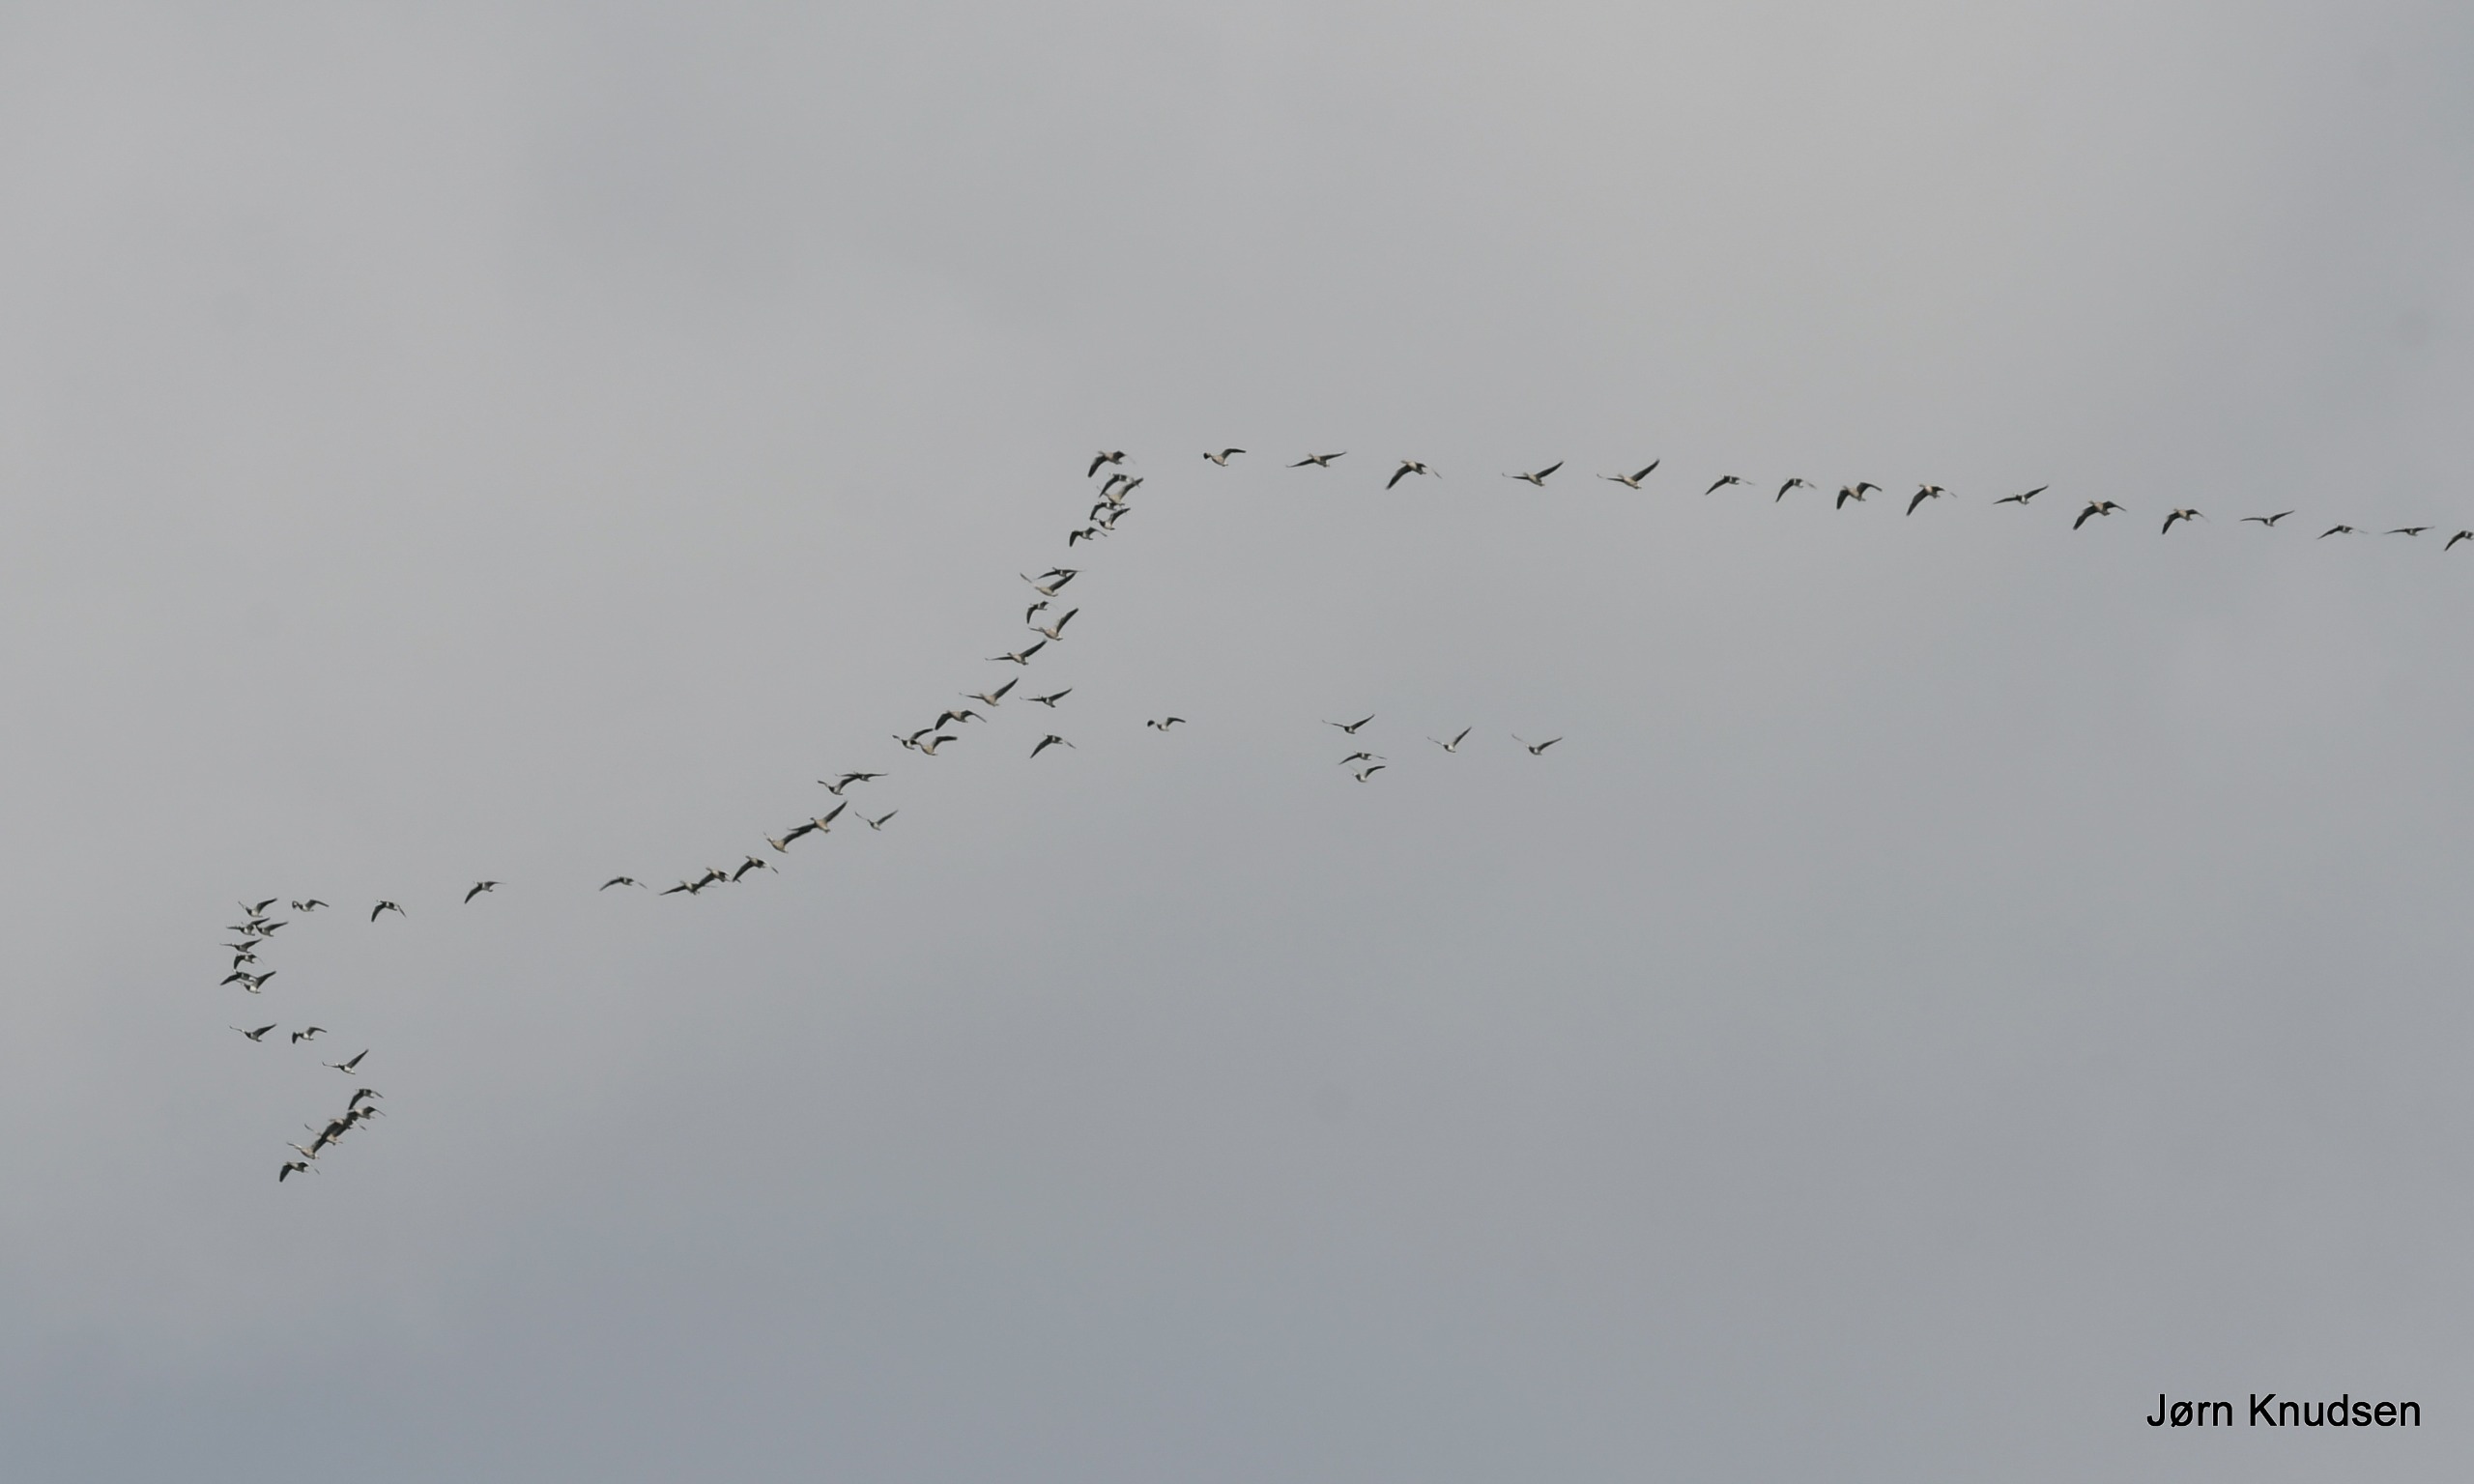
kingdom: Animalia
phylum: Chordata
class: Aves
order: Anseriformes
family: Anatidae
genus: Branta
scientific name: Branta leucopsis
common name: Bramgås
